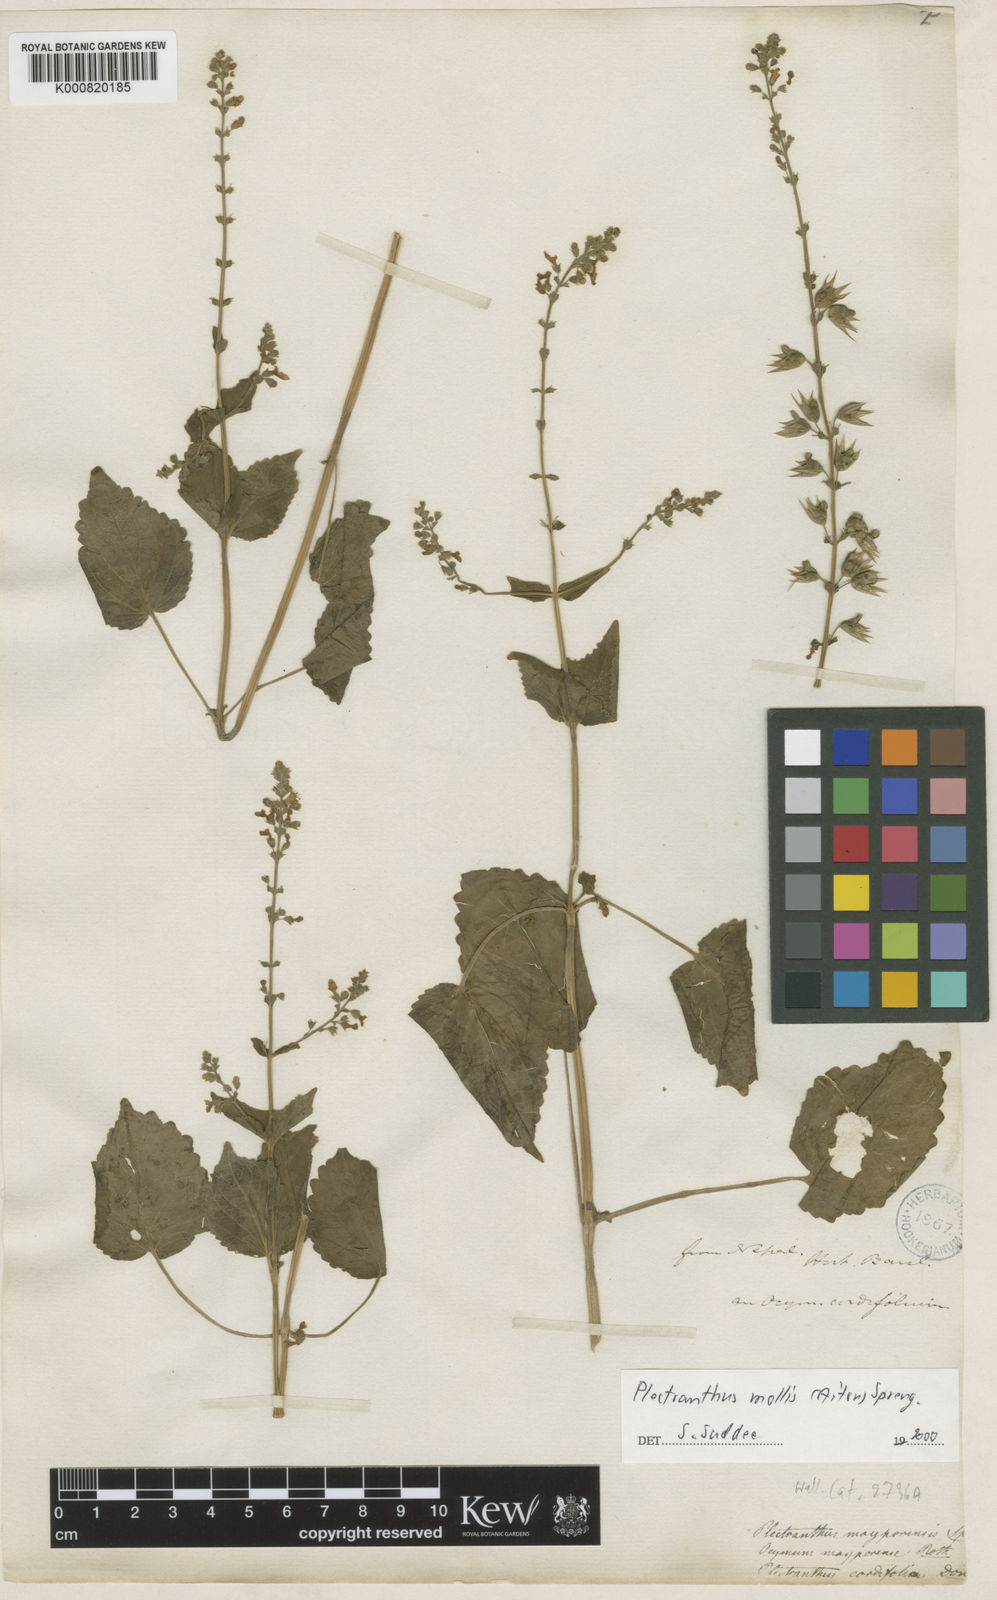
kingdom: Plantae
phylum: Tracheophyta
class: Magnoliopsida
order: Lamiales
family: Lamiaceae
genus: Equilabium
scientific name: Equilabium molle
